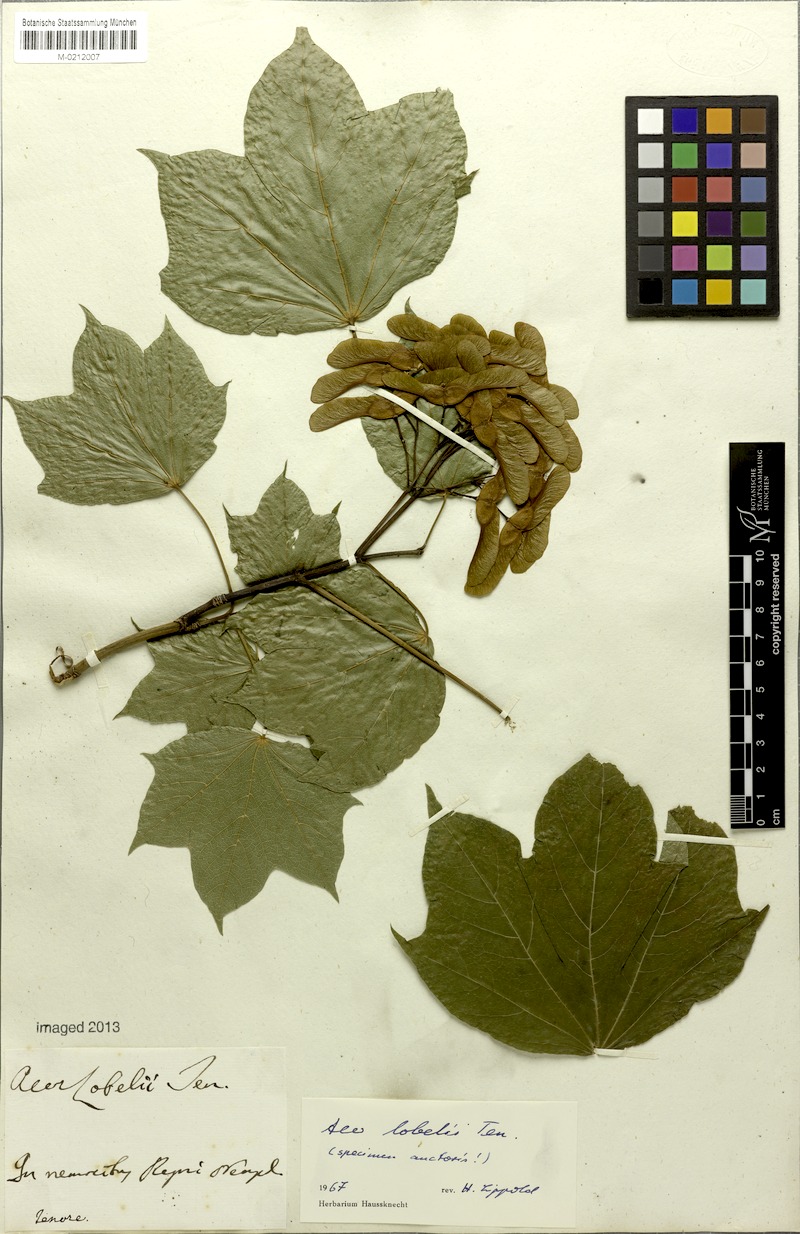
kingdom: Plantae
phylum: Tracheophyta
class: Magnoliopsida
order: Sapindales
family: Sapindaceae
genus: Acer
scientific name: Acer lobelii
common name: Lobel's maple
